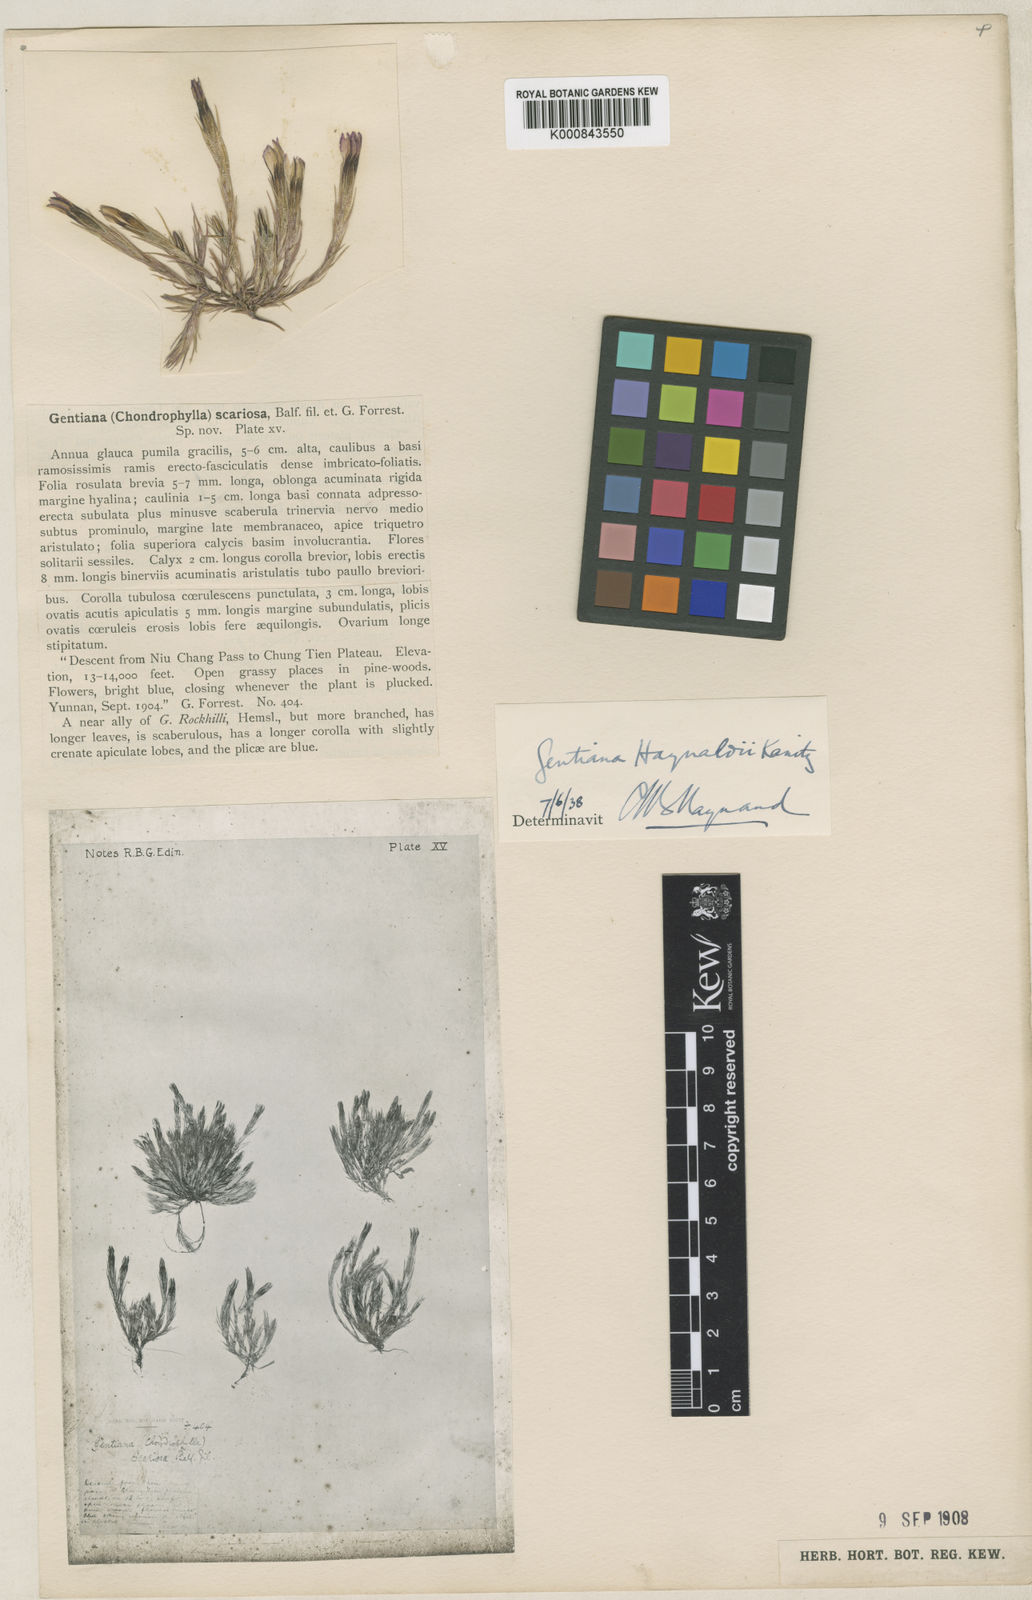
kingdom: Plantae
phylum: Tracheophyta
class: Magnoliopsida
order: Gentianales
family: Gentianaceae
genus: Gentiana
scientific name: Gentiana haynaldii
